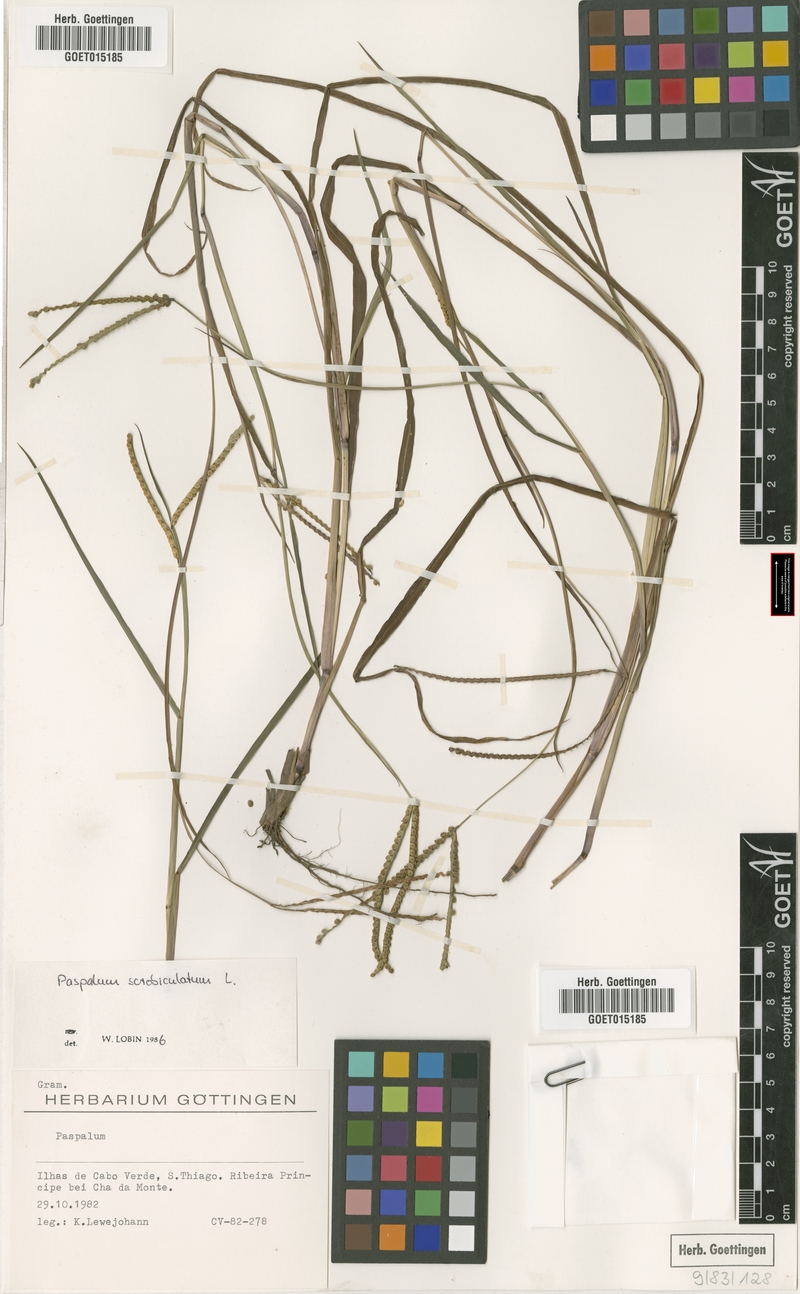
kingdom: Plantae
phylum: Tracheophyta
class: Liliopsida
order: Poales
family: Poaceae
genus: Paspalum
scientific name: Paspalum scrobiculatum
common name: Kodo millet
